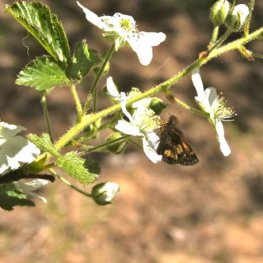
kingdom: Animalia
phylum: Arthropoda
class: Insecta
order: Lepidoptera
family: Hesperiidae
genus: Lon
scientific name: Lon hobomok
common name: Hobomok Skipper
